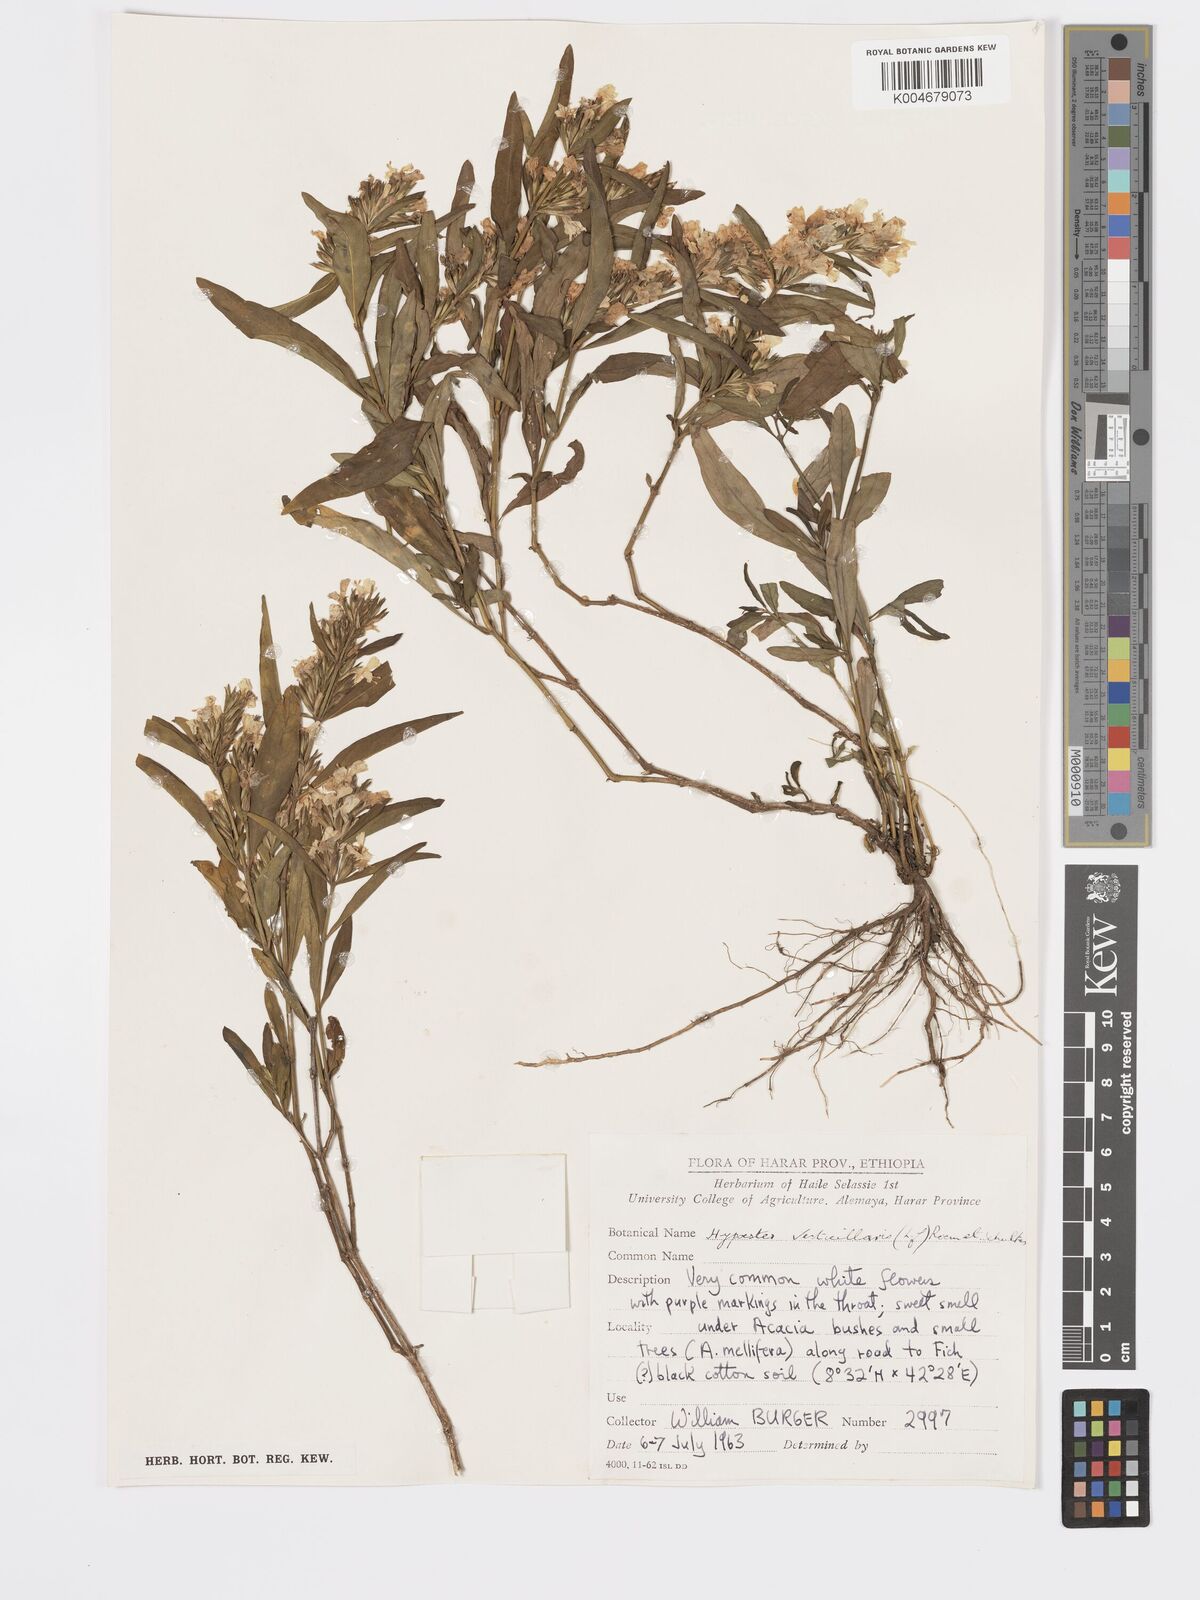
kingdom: Plantae
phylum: Tracheophyta
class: Magnoliopsida
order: Lamiales
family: Acanthaceae
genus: Hypoestes
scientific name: Hypoestes forskaolii
